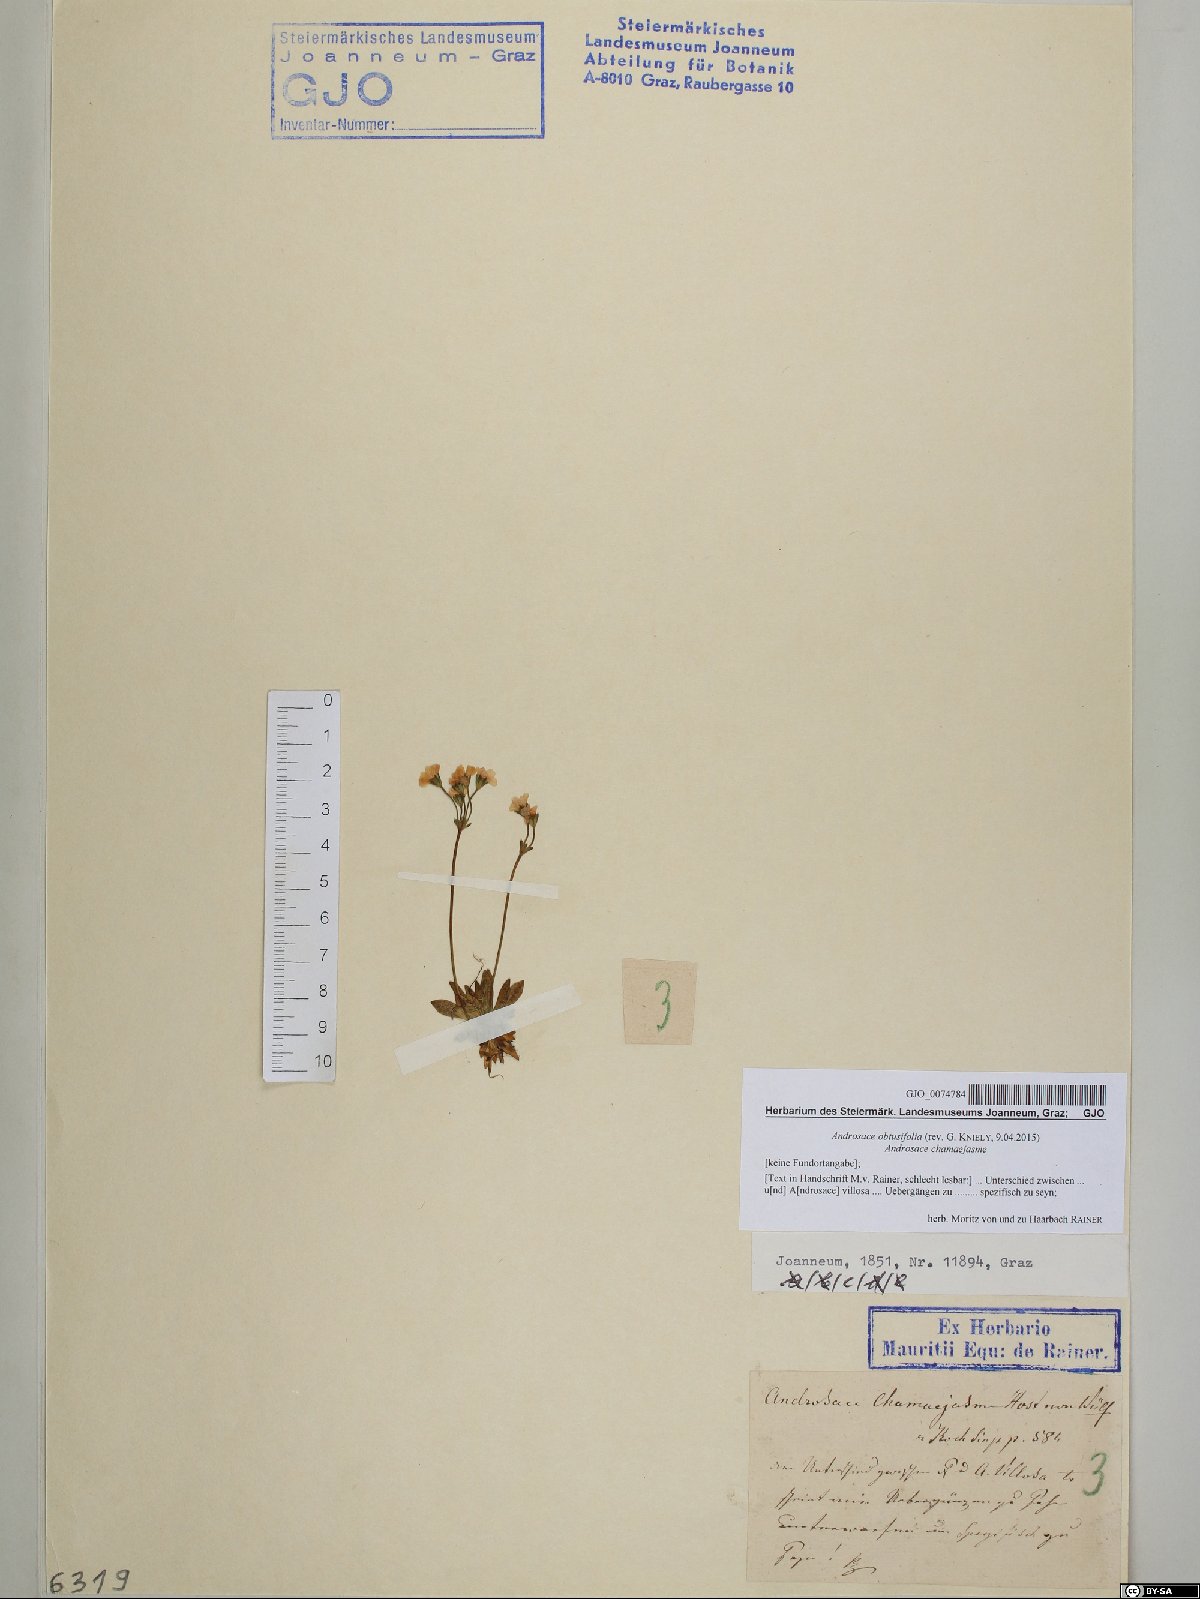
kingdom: Plantae
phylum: Tracheophyta
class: Magnoliopsida
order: Ericales
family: Primulaceae
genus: Androsace
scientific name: Androsace obtusifolia
